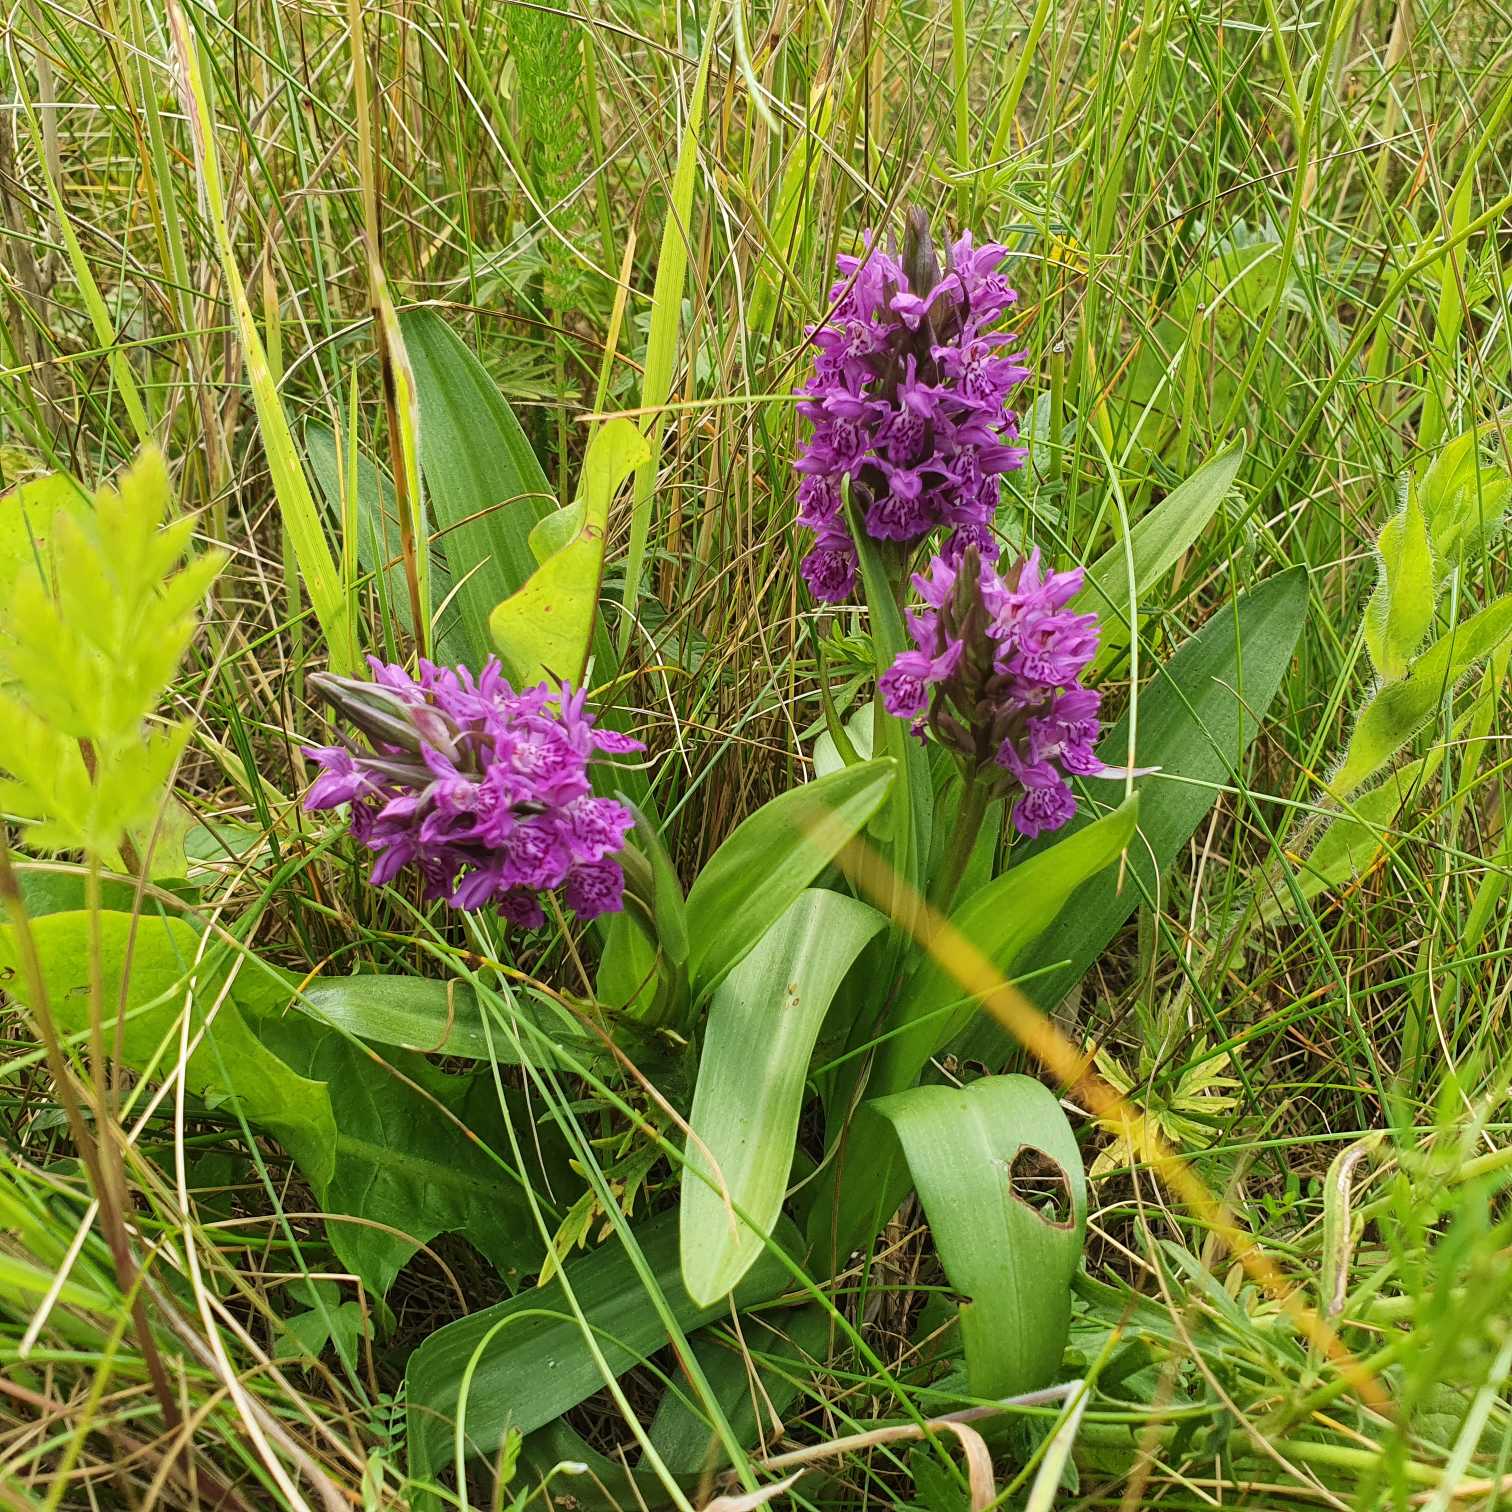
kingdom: Plantae
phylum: Tracheophyta
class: Liliopsida
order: Asparagales
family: Orchidaceae
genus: Dactylorhiza
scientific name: Dactylorhiza majalis
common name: Purpur-gøgeurt
